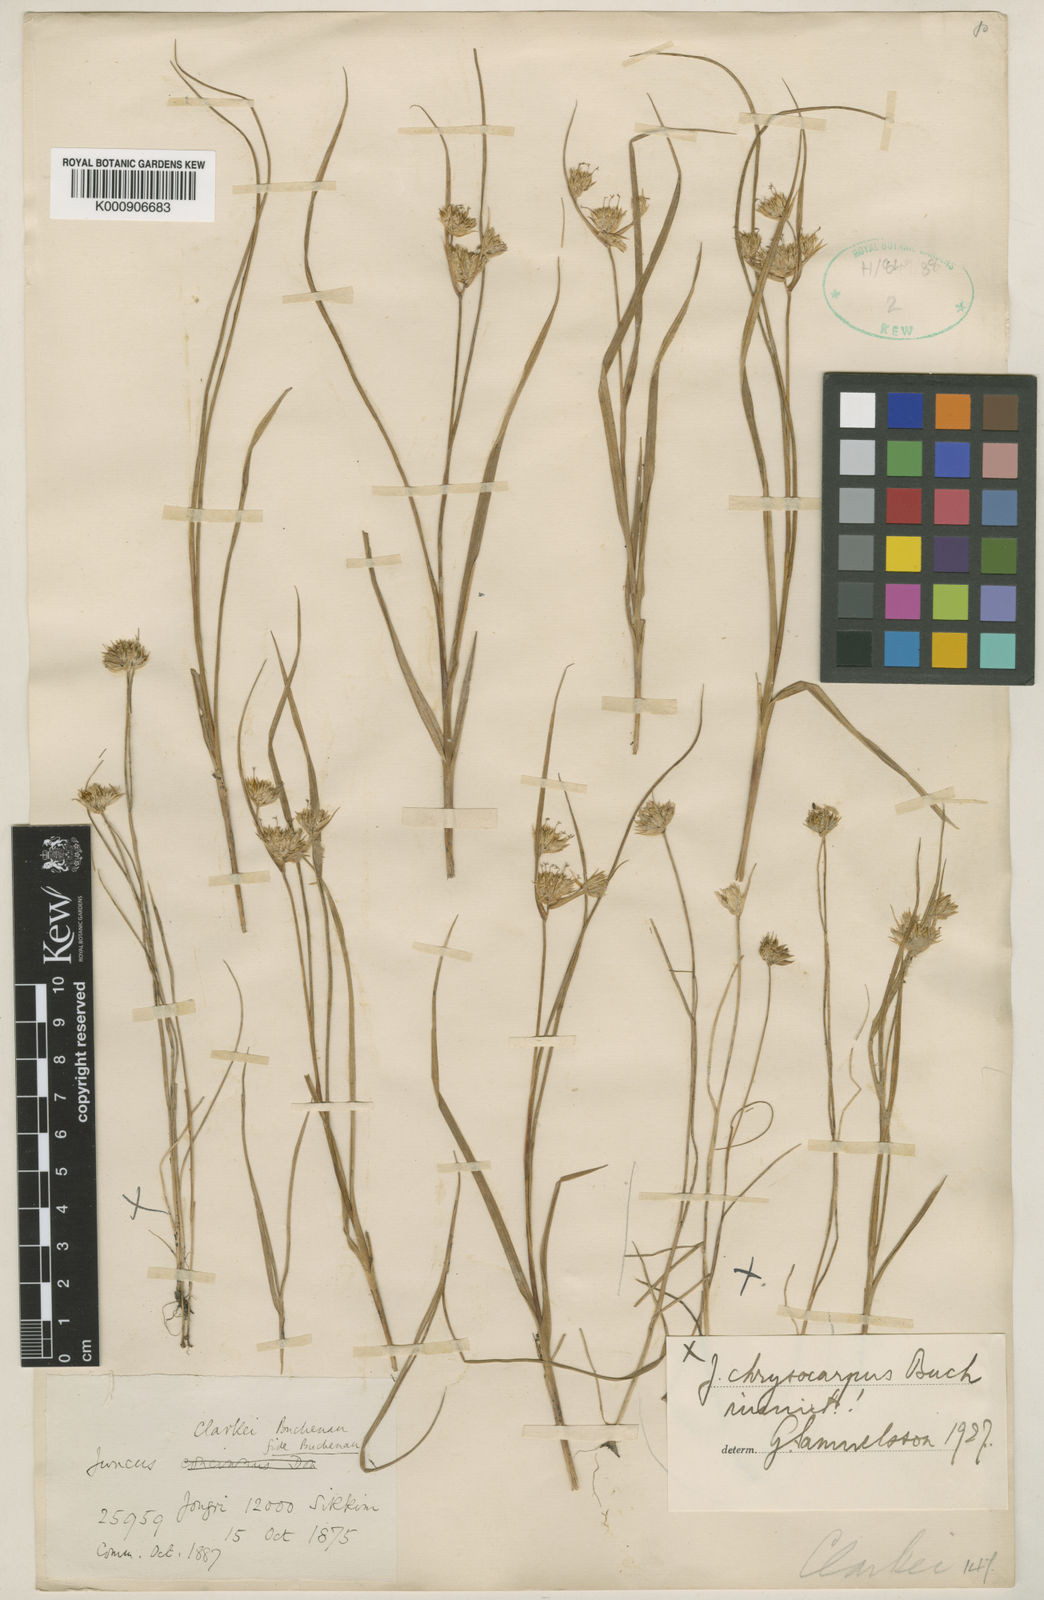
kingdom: Plantae
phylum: Tracheophyta
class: Liliopsida
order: Poales
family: Juncaceae
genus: Juncus
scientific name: Juncus clarkei
